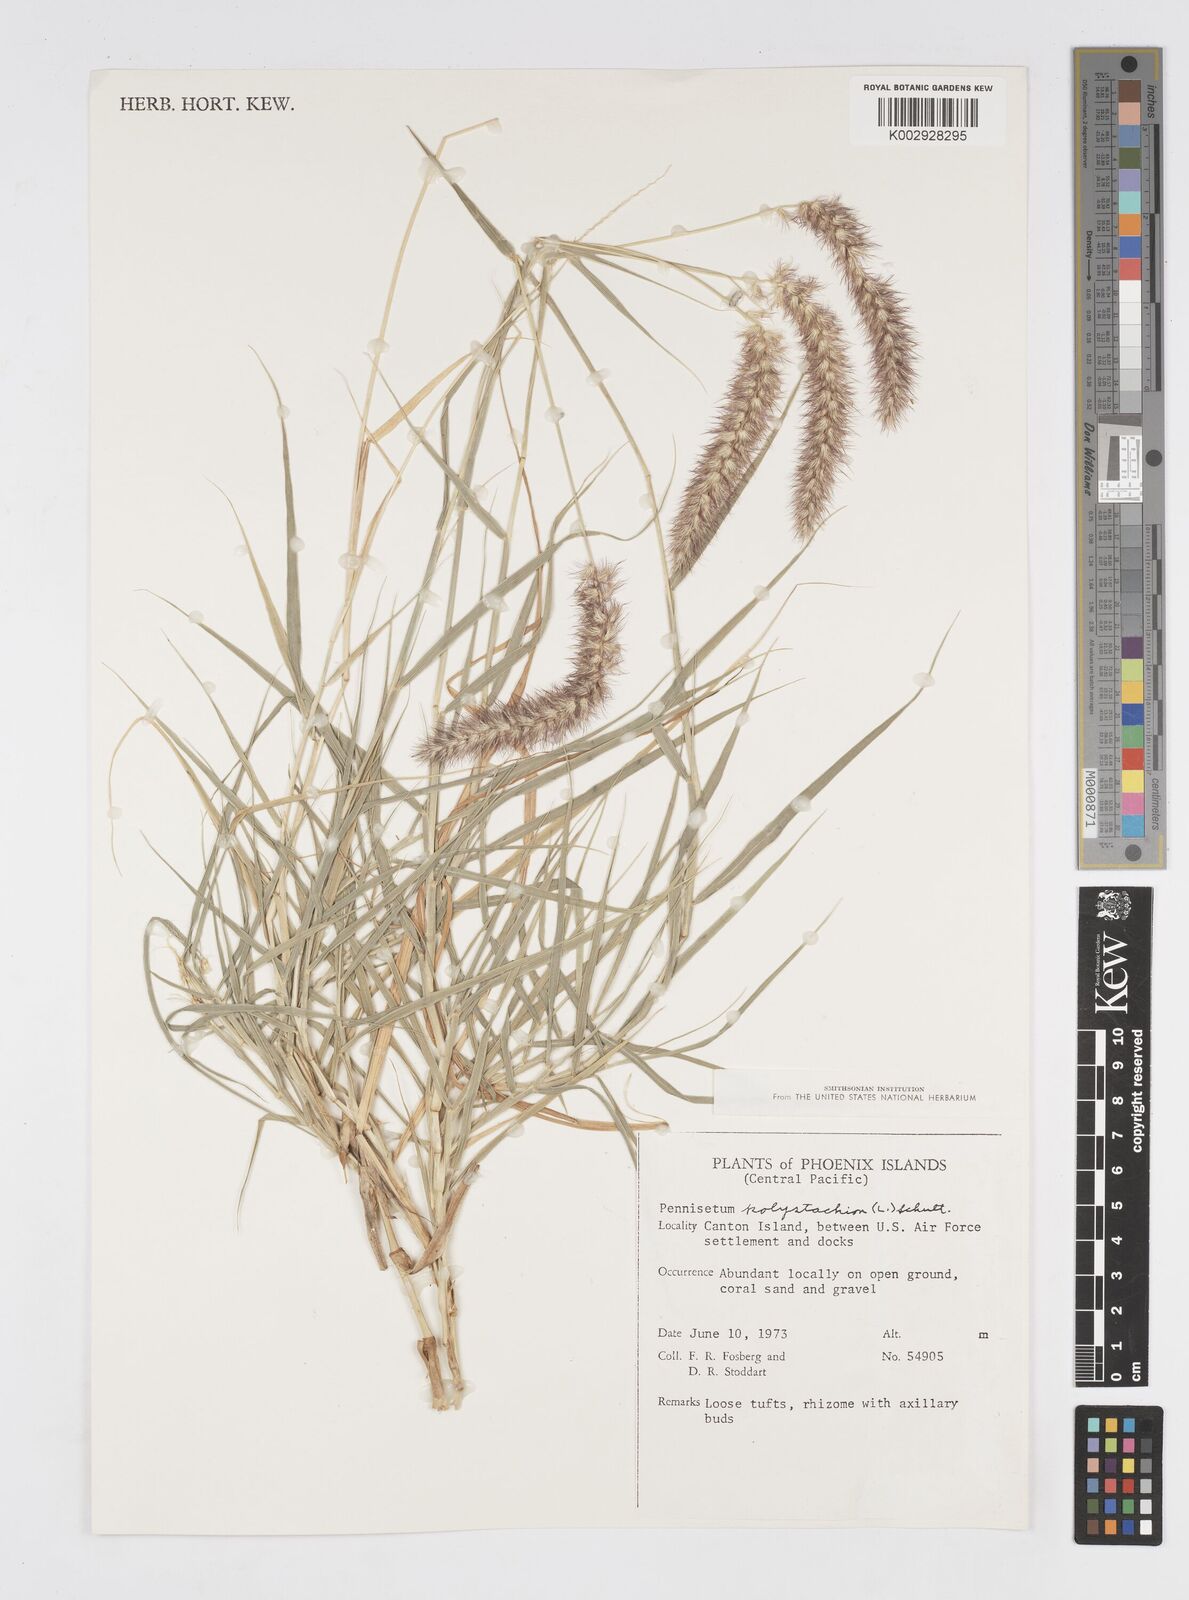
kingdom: Plantae
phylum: Tracheophyta
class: Liliopsida
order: Poales
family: Poaceae
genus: Cenchrus
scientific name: Cenchrus ciliaris
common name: Buffelgrass
